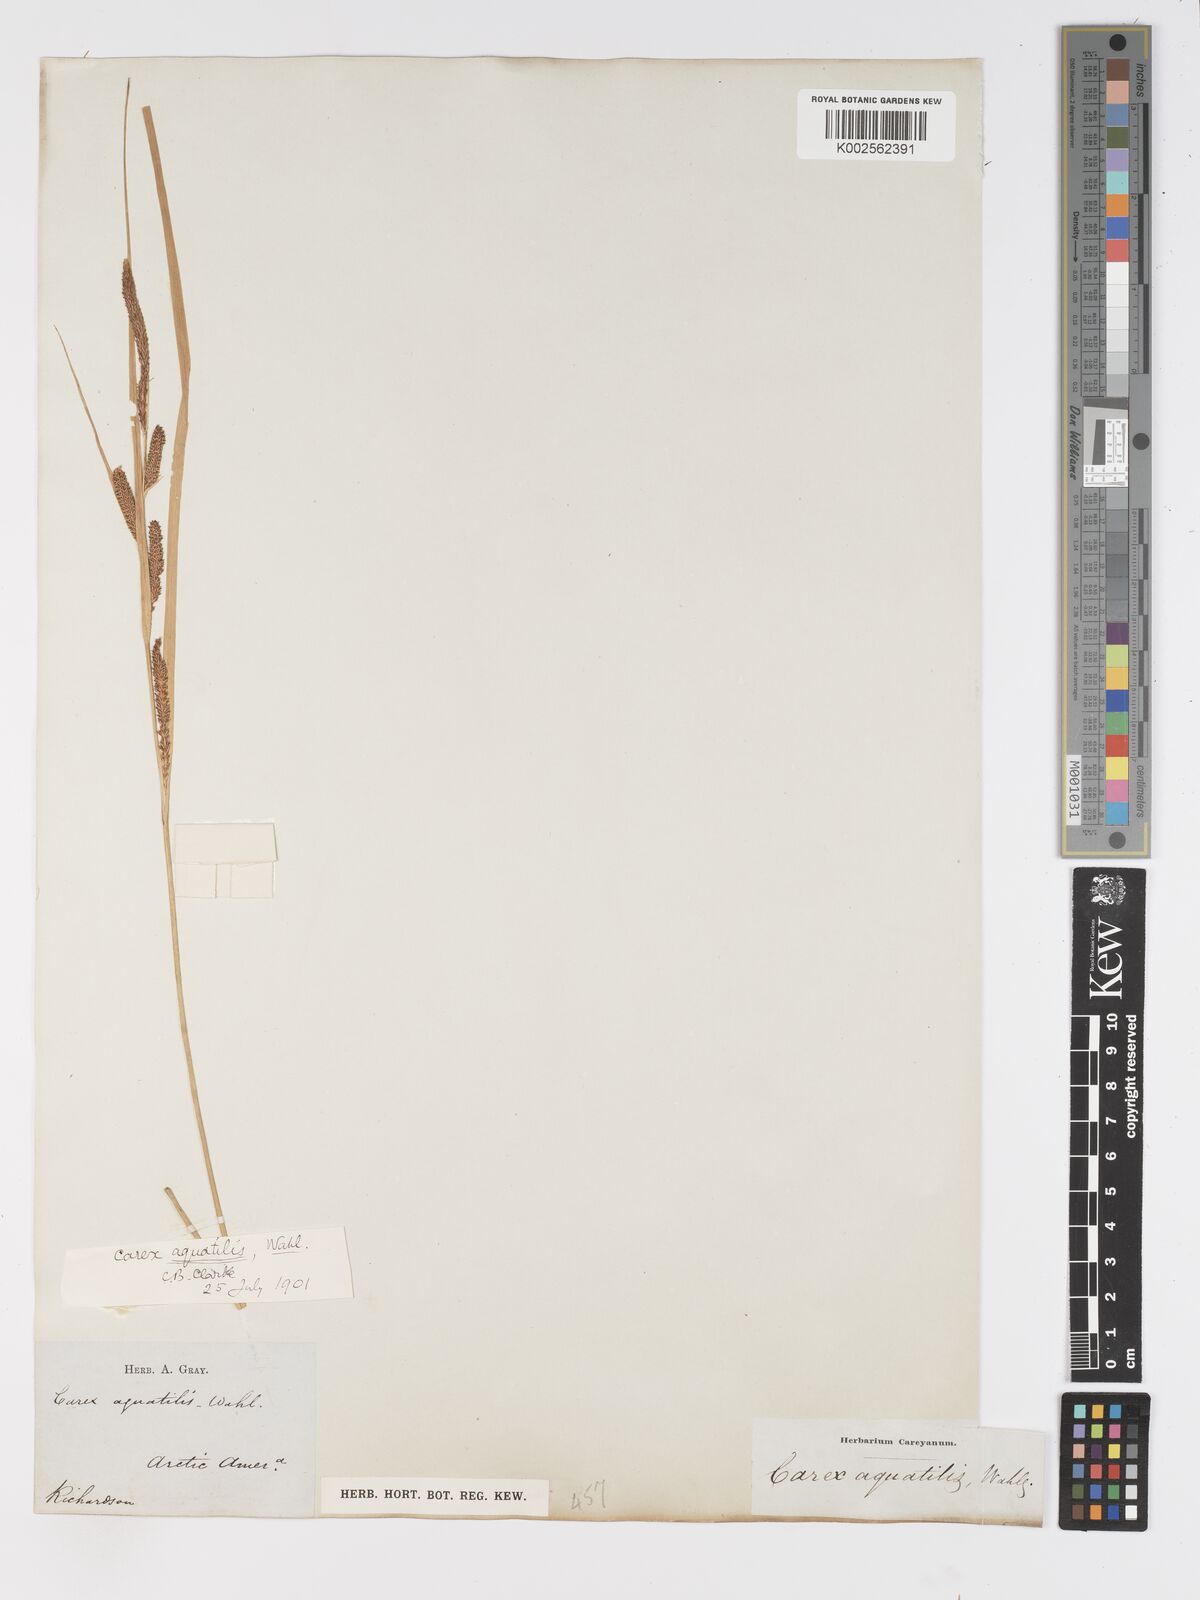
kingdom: Plantae
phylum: Tracheophyta
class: Liliopsida
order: Poales
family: Cyperaceae
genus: Carex
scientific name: Carex aquatilis
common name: Water sedge
